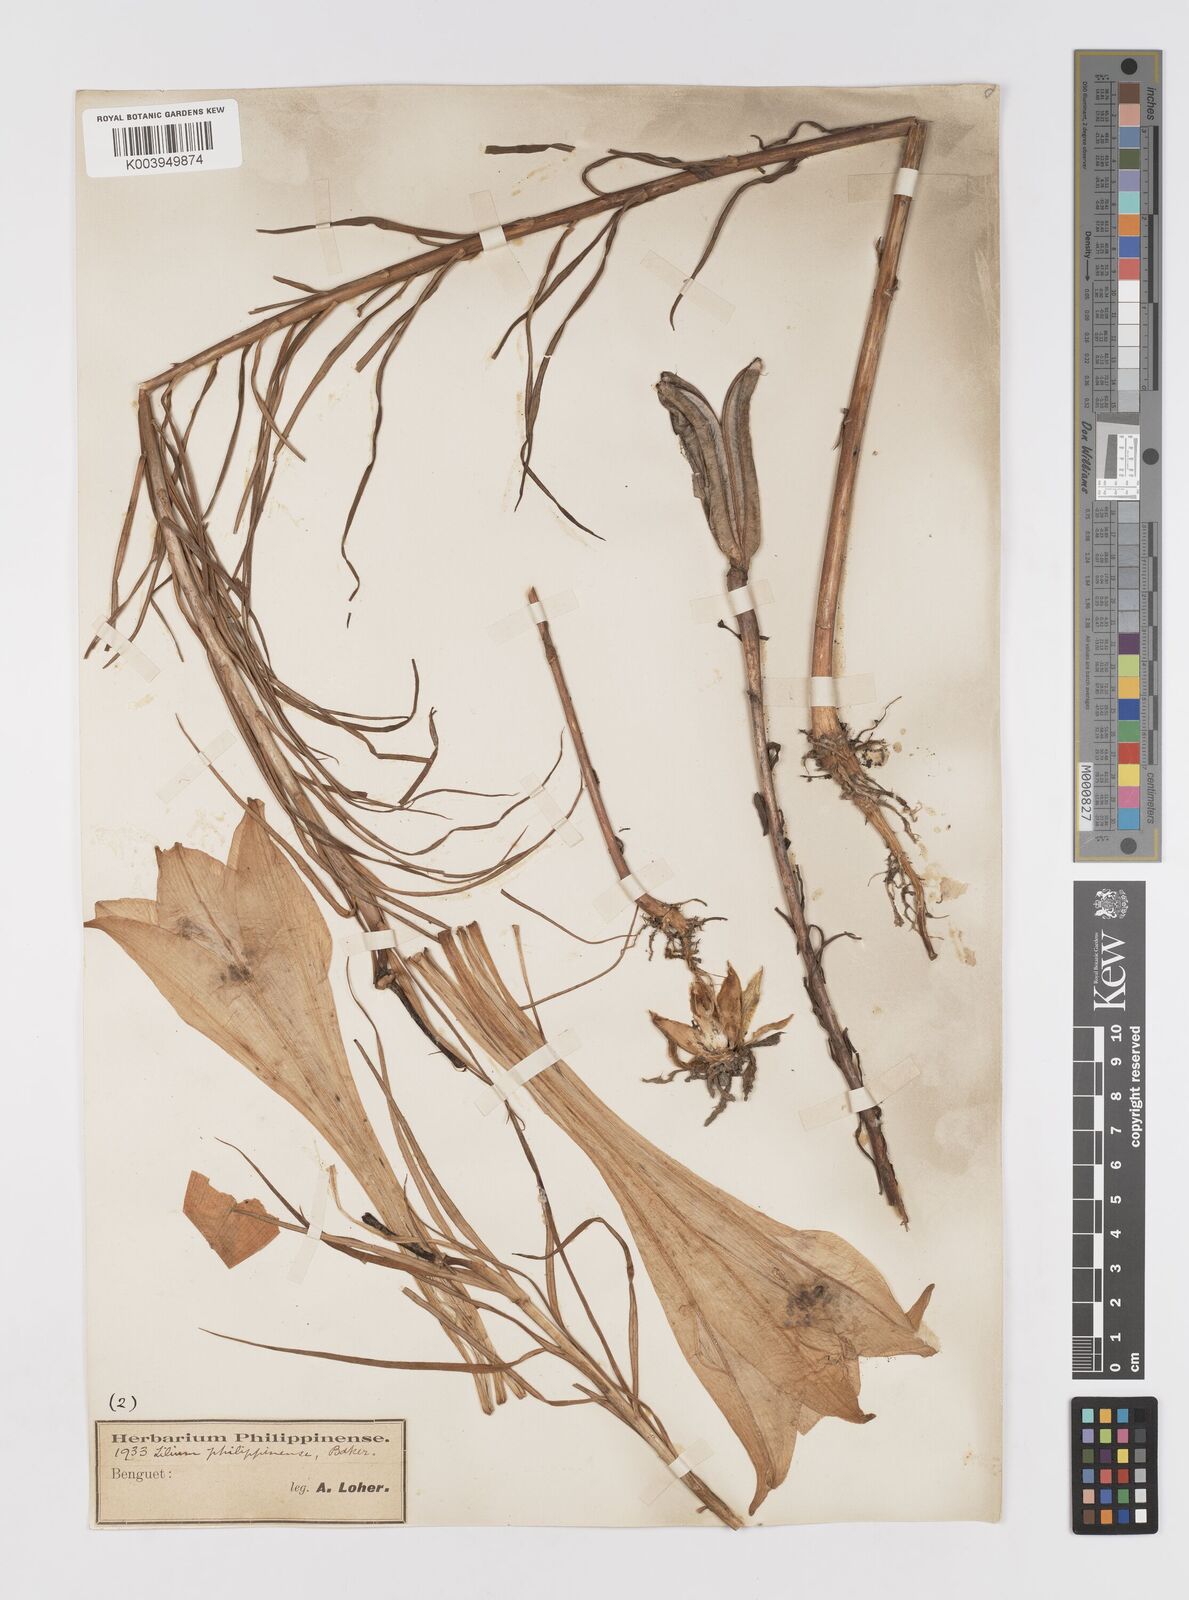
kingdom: Plantae
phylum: Tracheophyta
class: Liliopsida
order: Liliales
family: Liliaceae
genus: Lilium
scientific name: Lilium philippinense
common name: Philippine lily
